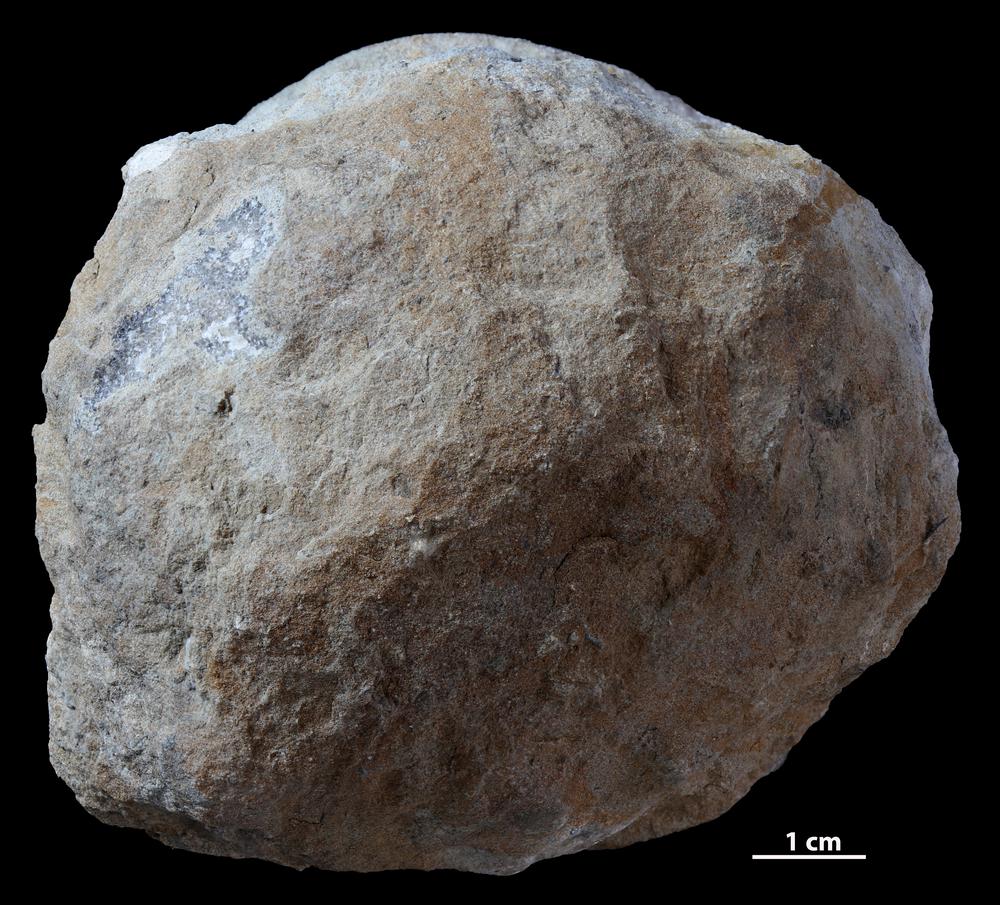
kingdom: Animalia
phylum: Bryozoa
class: Stenolaemata
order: Trepostomatida
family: Diplotrypidae
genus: Diplotrypa
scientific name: Diplotrypa petropolitana
